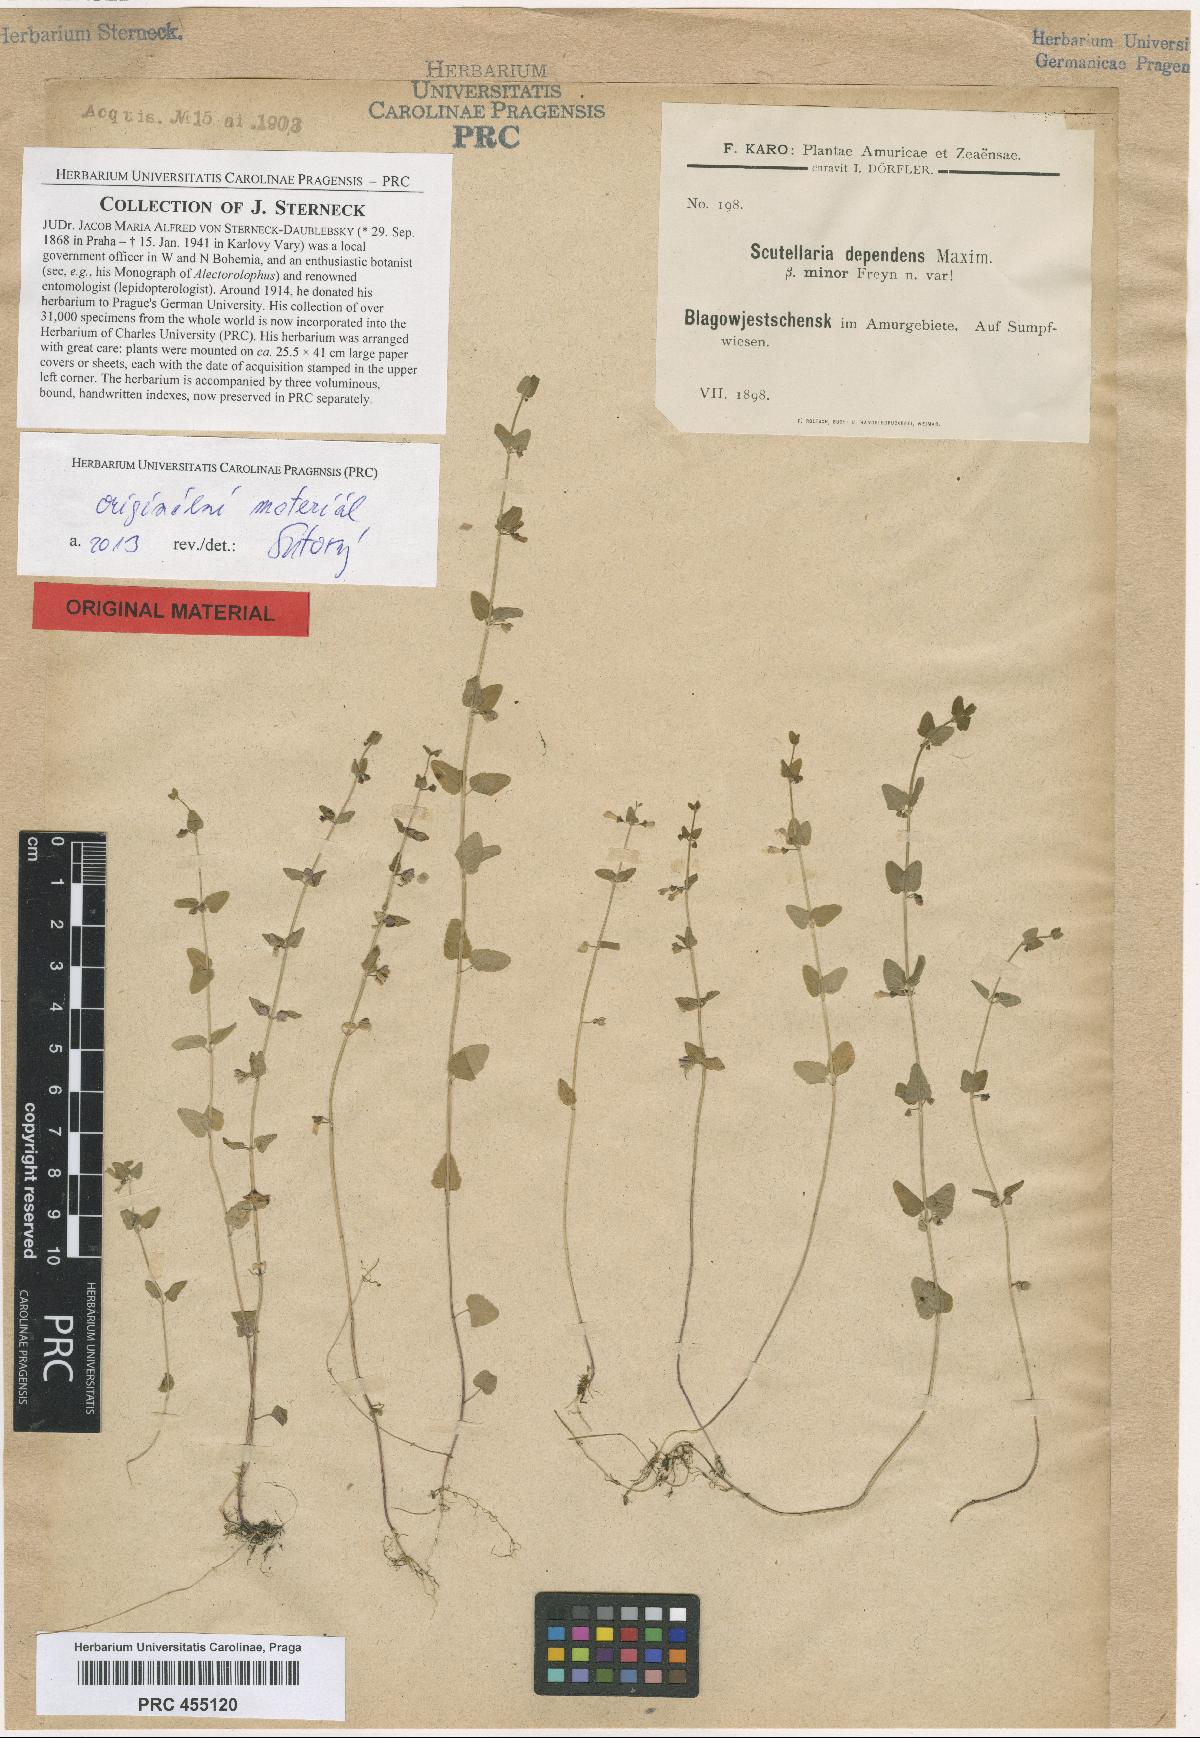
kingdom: Plantae
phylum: Tracheophyta
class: Magnoliopsida
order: Lamiales
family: Lamiaceae
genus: Scutellaria
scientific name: Scutellaria dependens
